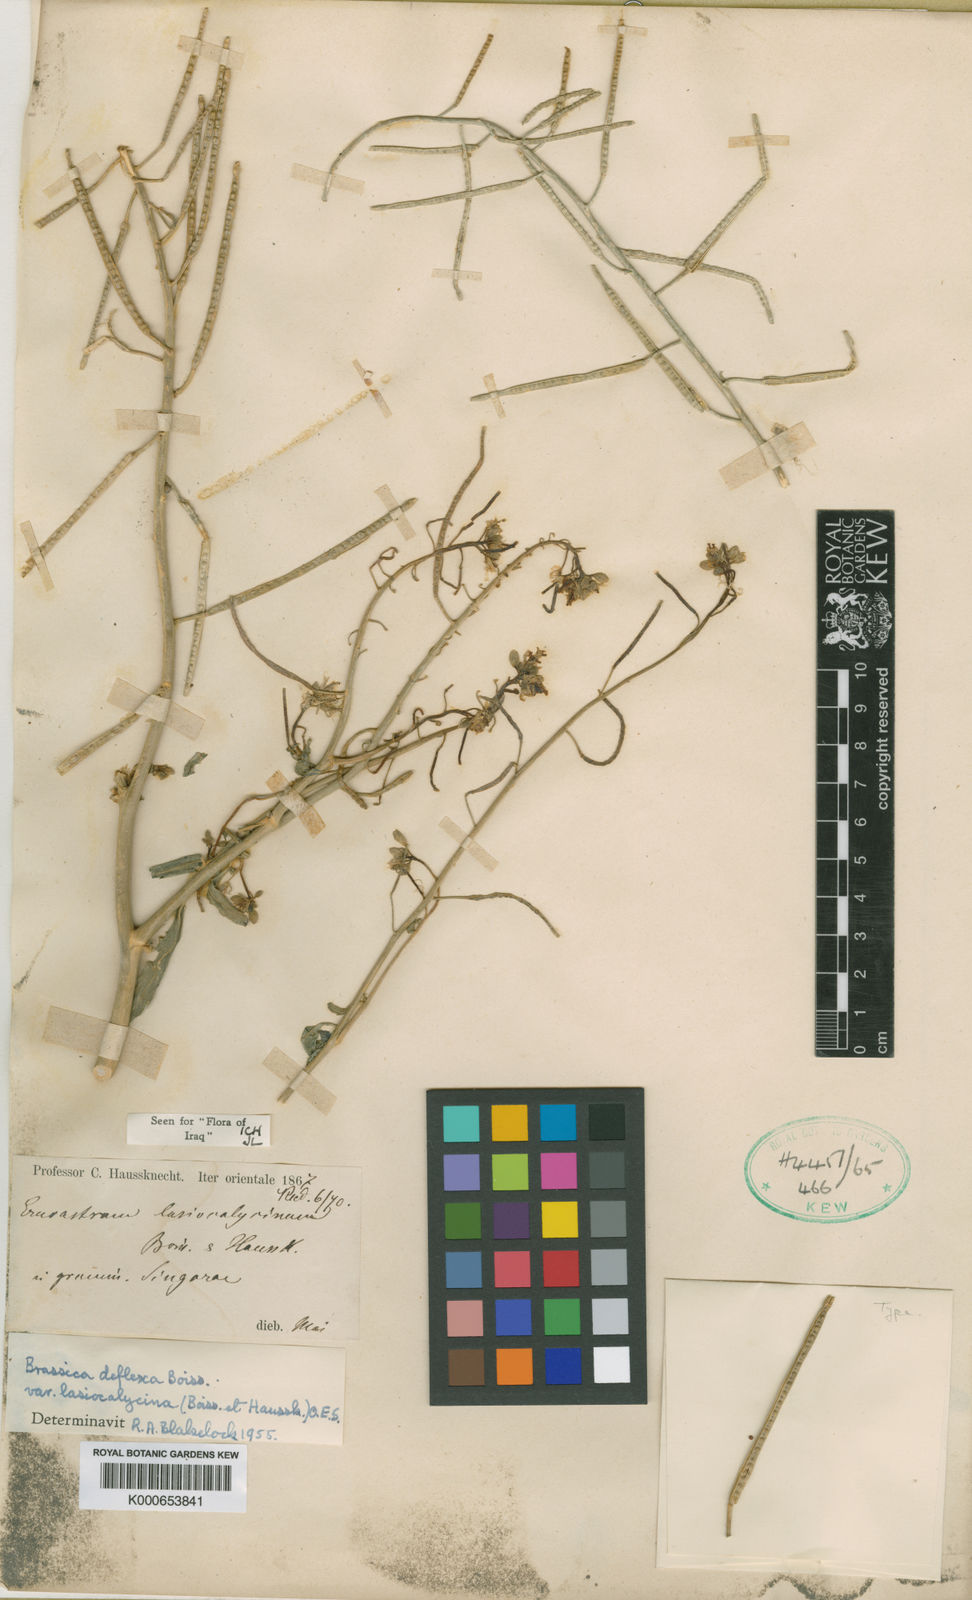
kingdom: Plantae
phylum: Tracheophyta
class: Magnoliopsida
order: Brassicales
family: Brassicaceae
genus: Brassica
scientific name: Brassica deflexa
